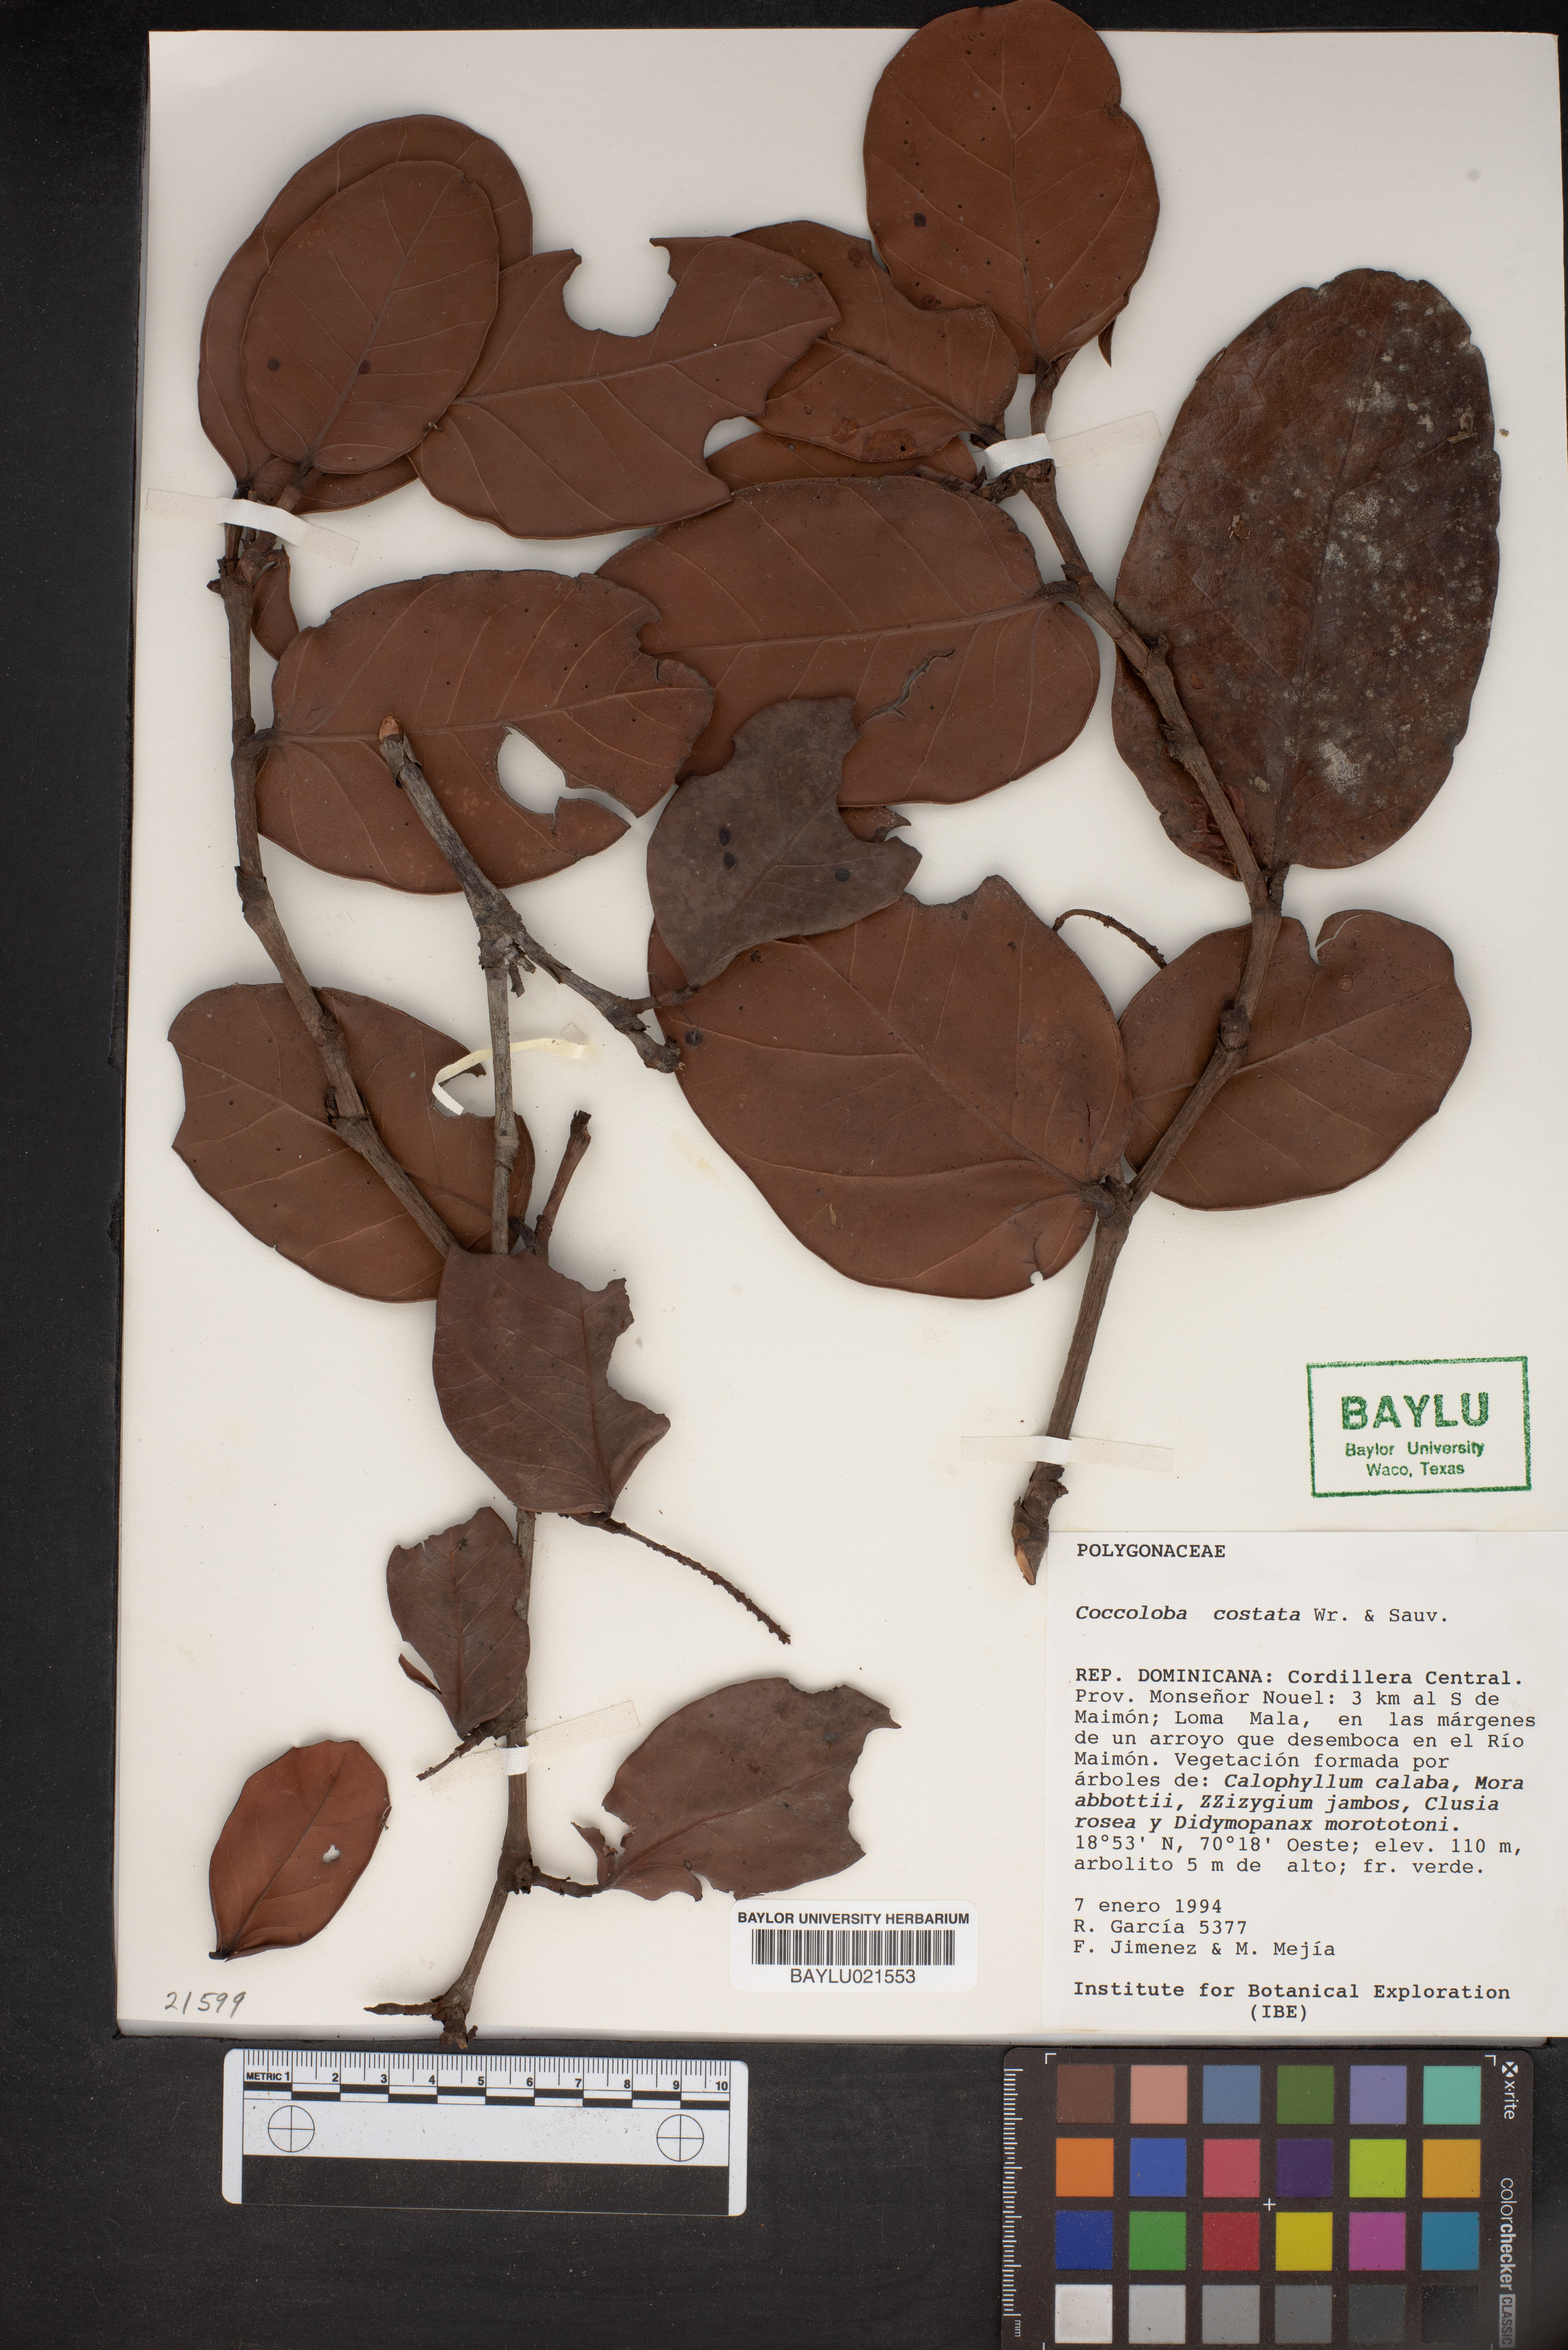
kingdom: Plantae
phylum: Tracheophyta
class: Magnoliopsida
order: Caryophyllales
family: Polygonaceae
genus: Coccoloba
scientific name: Coccoloba costata
